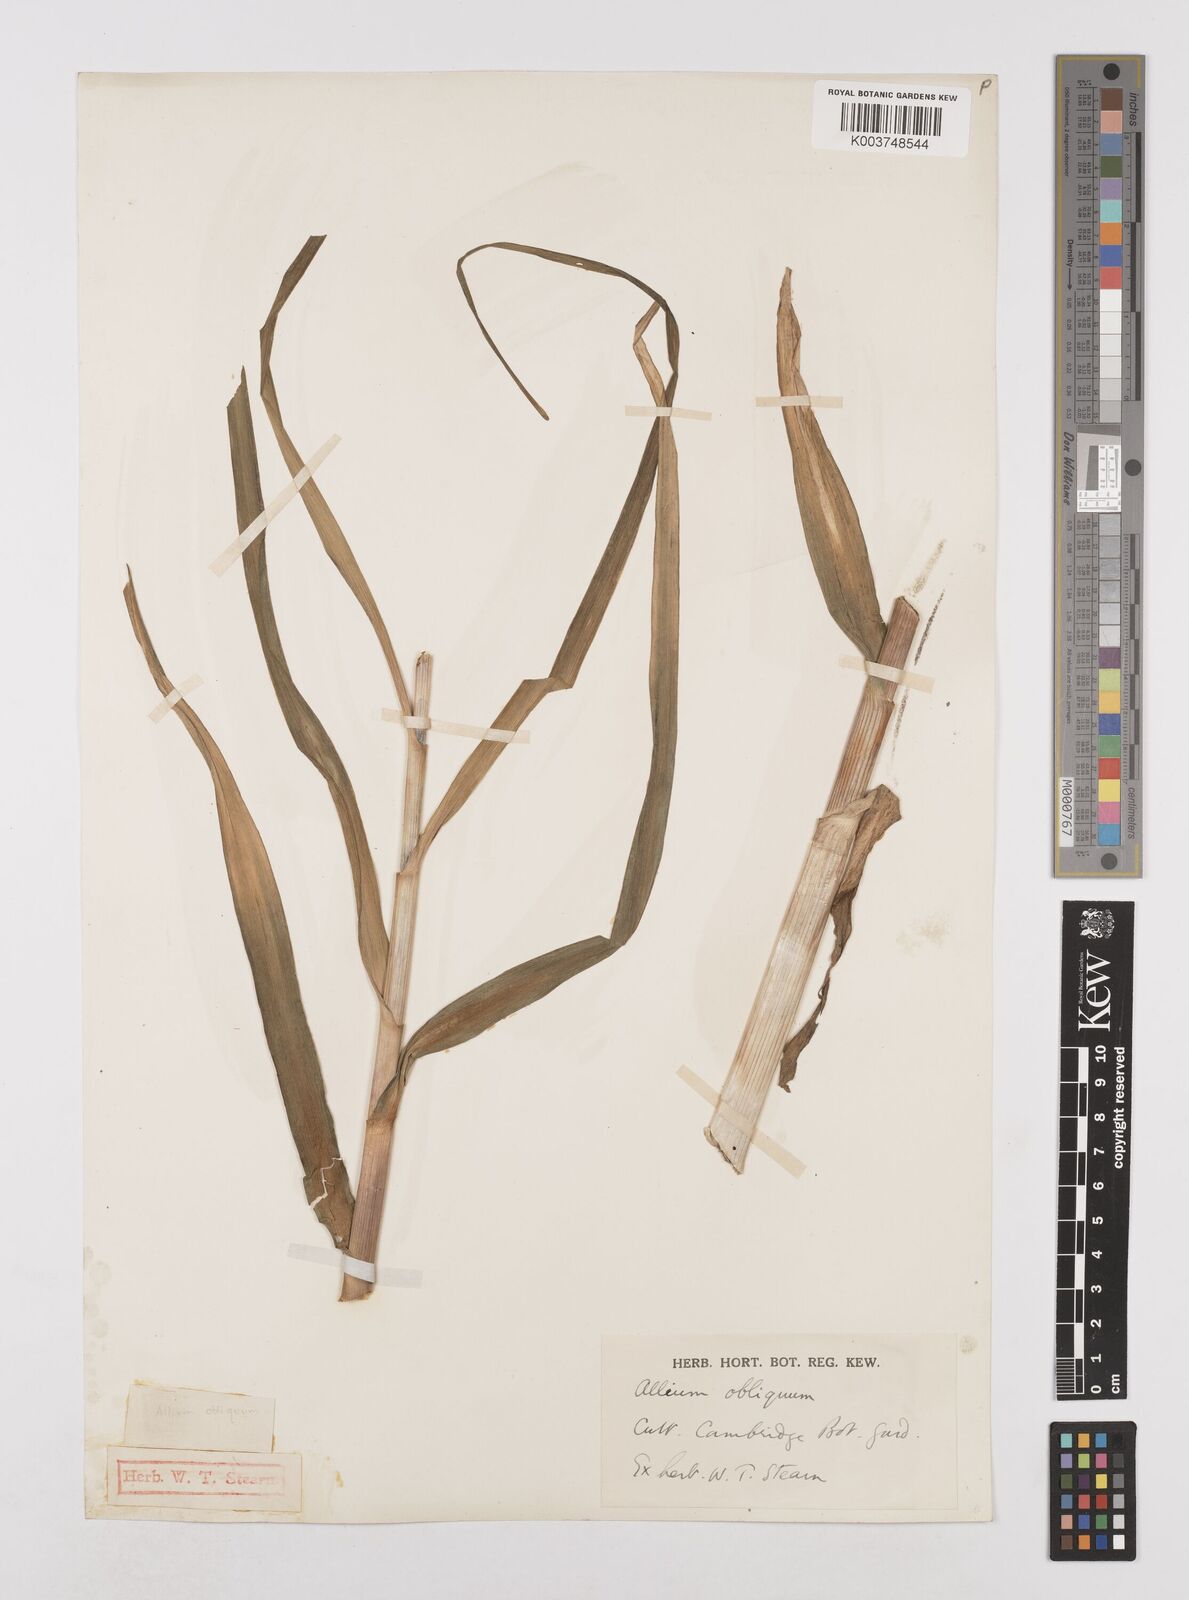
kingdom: Plantae
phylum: Tracheophyta
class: Liliopsida
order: Asparagales
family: Amaryllidaceae
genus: Allium
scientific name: Allium obliquum
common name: Oblique onion
